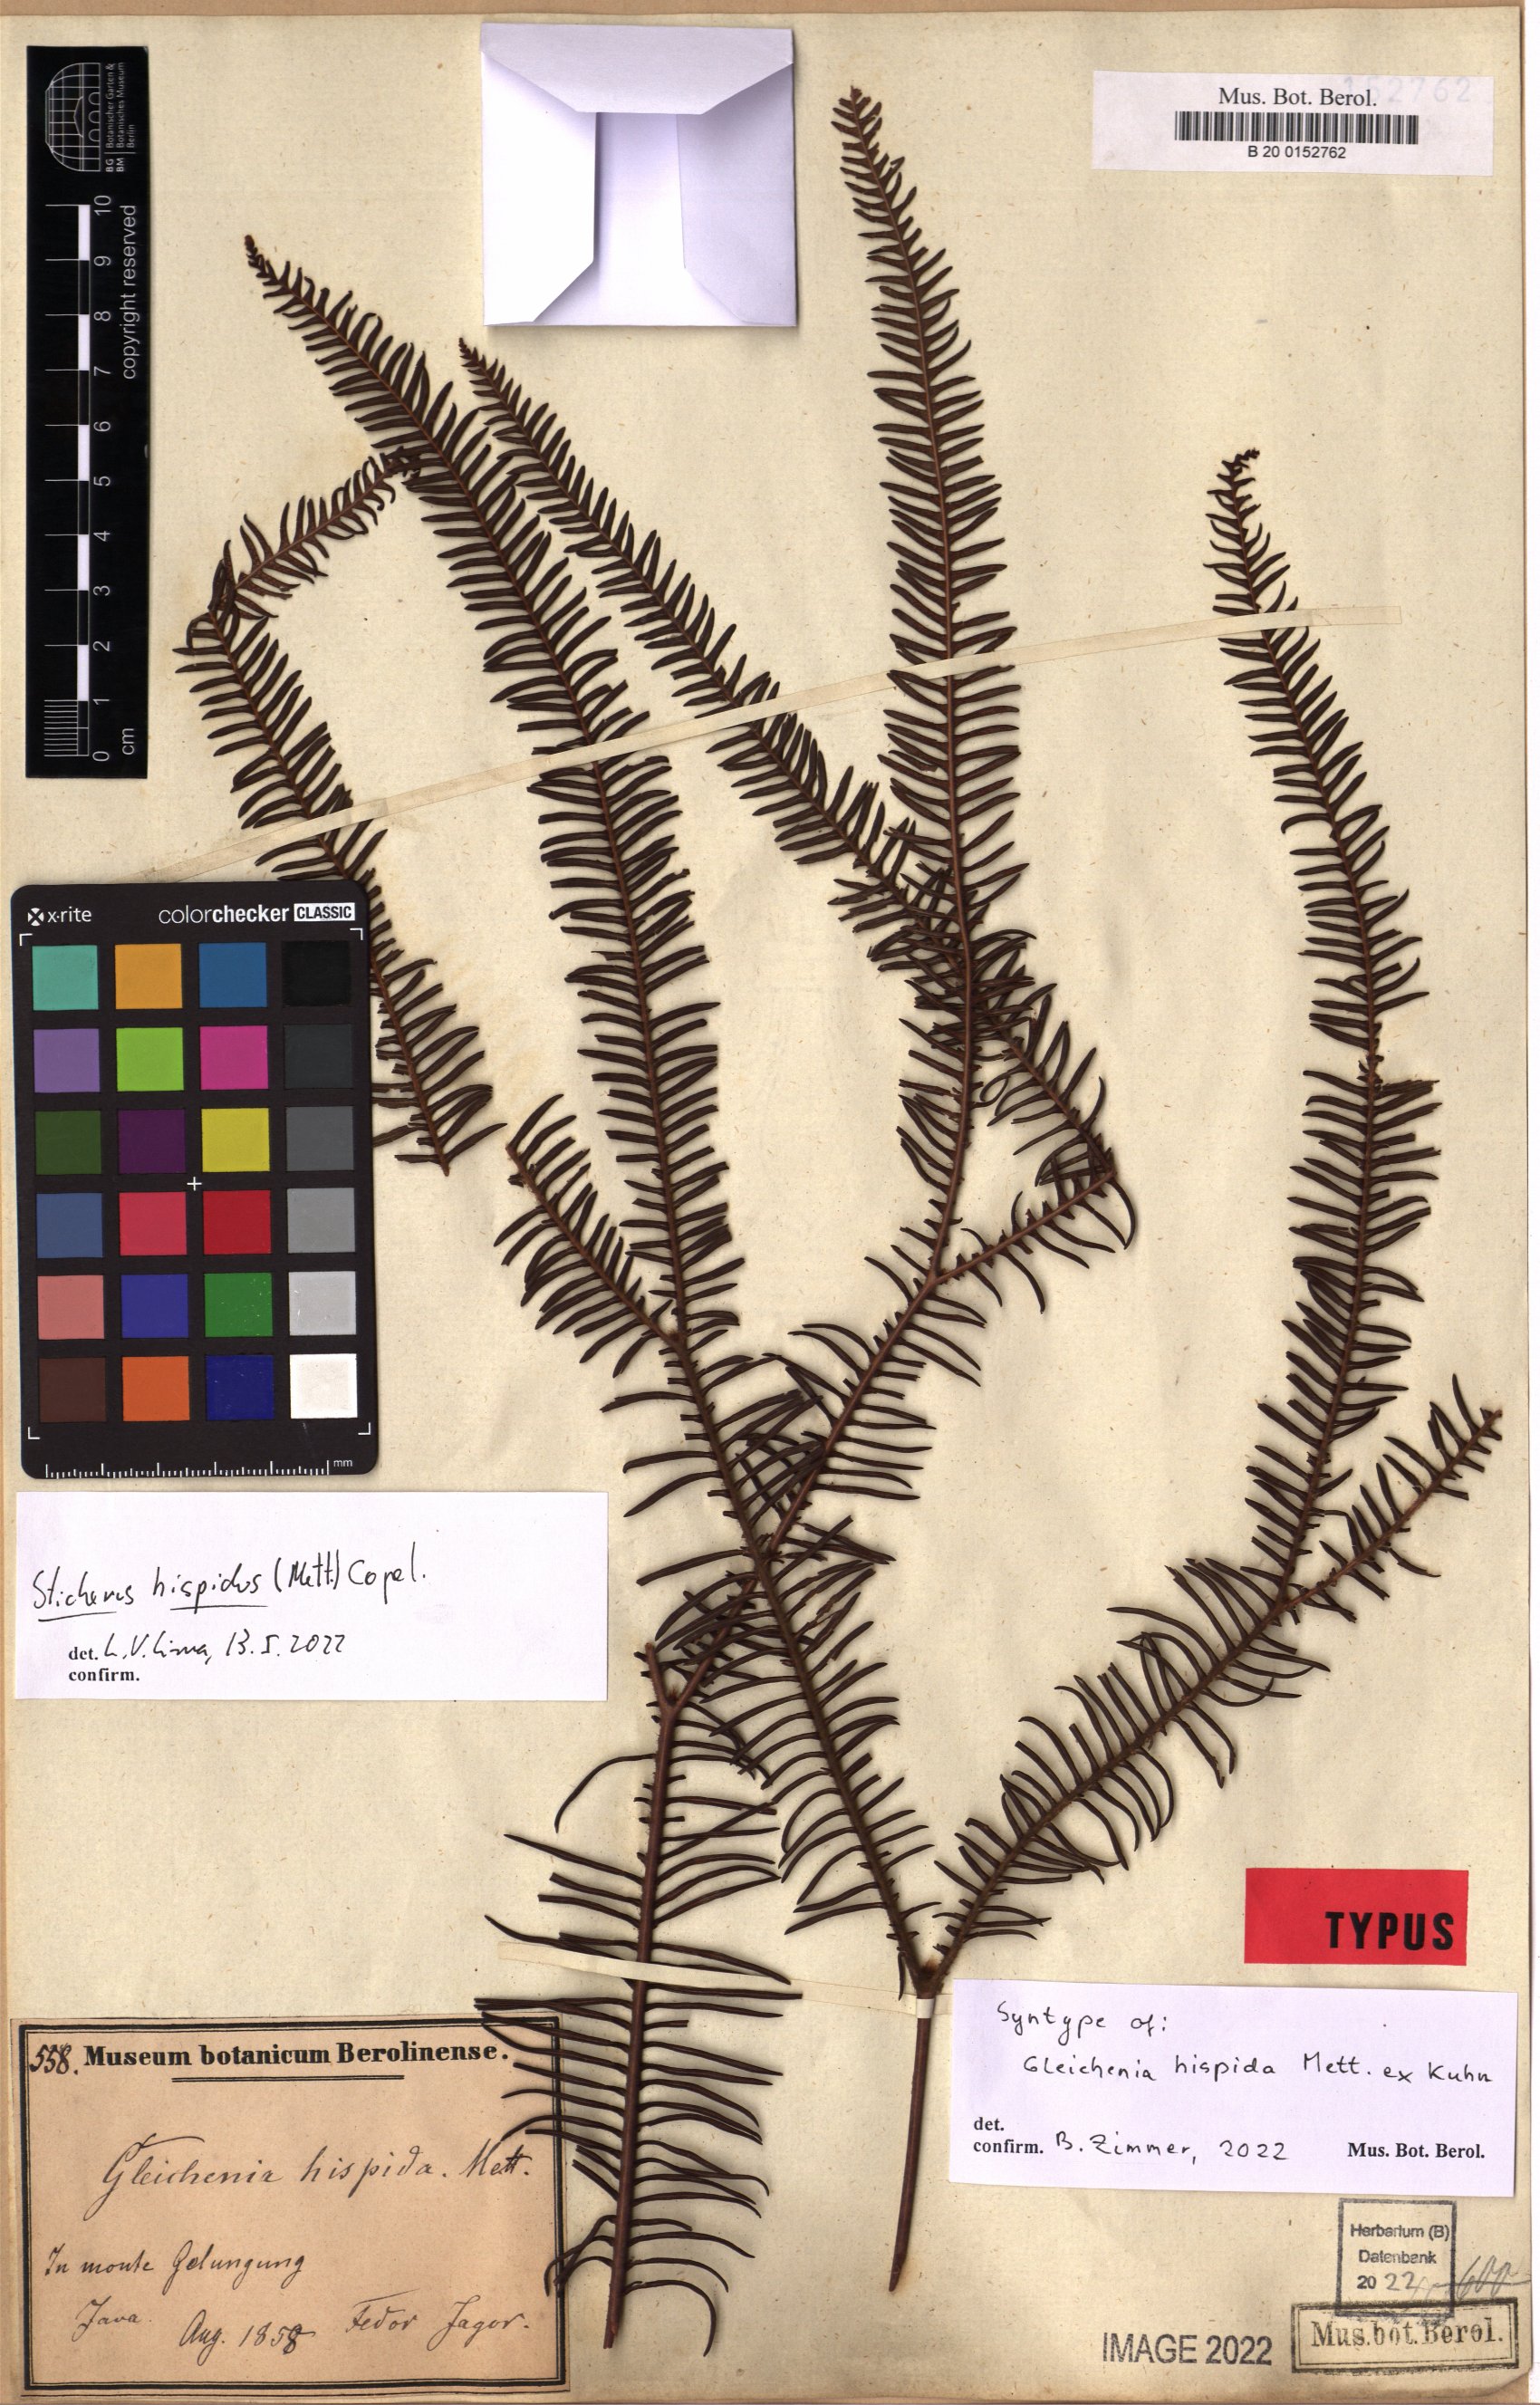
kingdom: Plantae
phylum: Tracheophyta
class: Polypodiopsida
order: Gleicheniales
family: Gleicheniaceae
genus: Sticherus
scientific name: Sticherus hispidus
